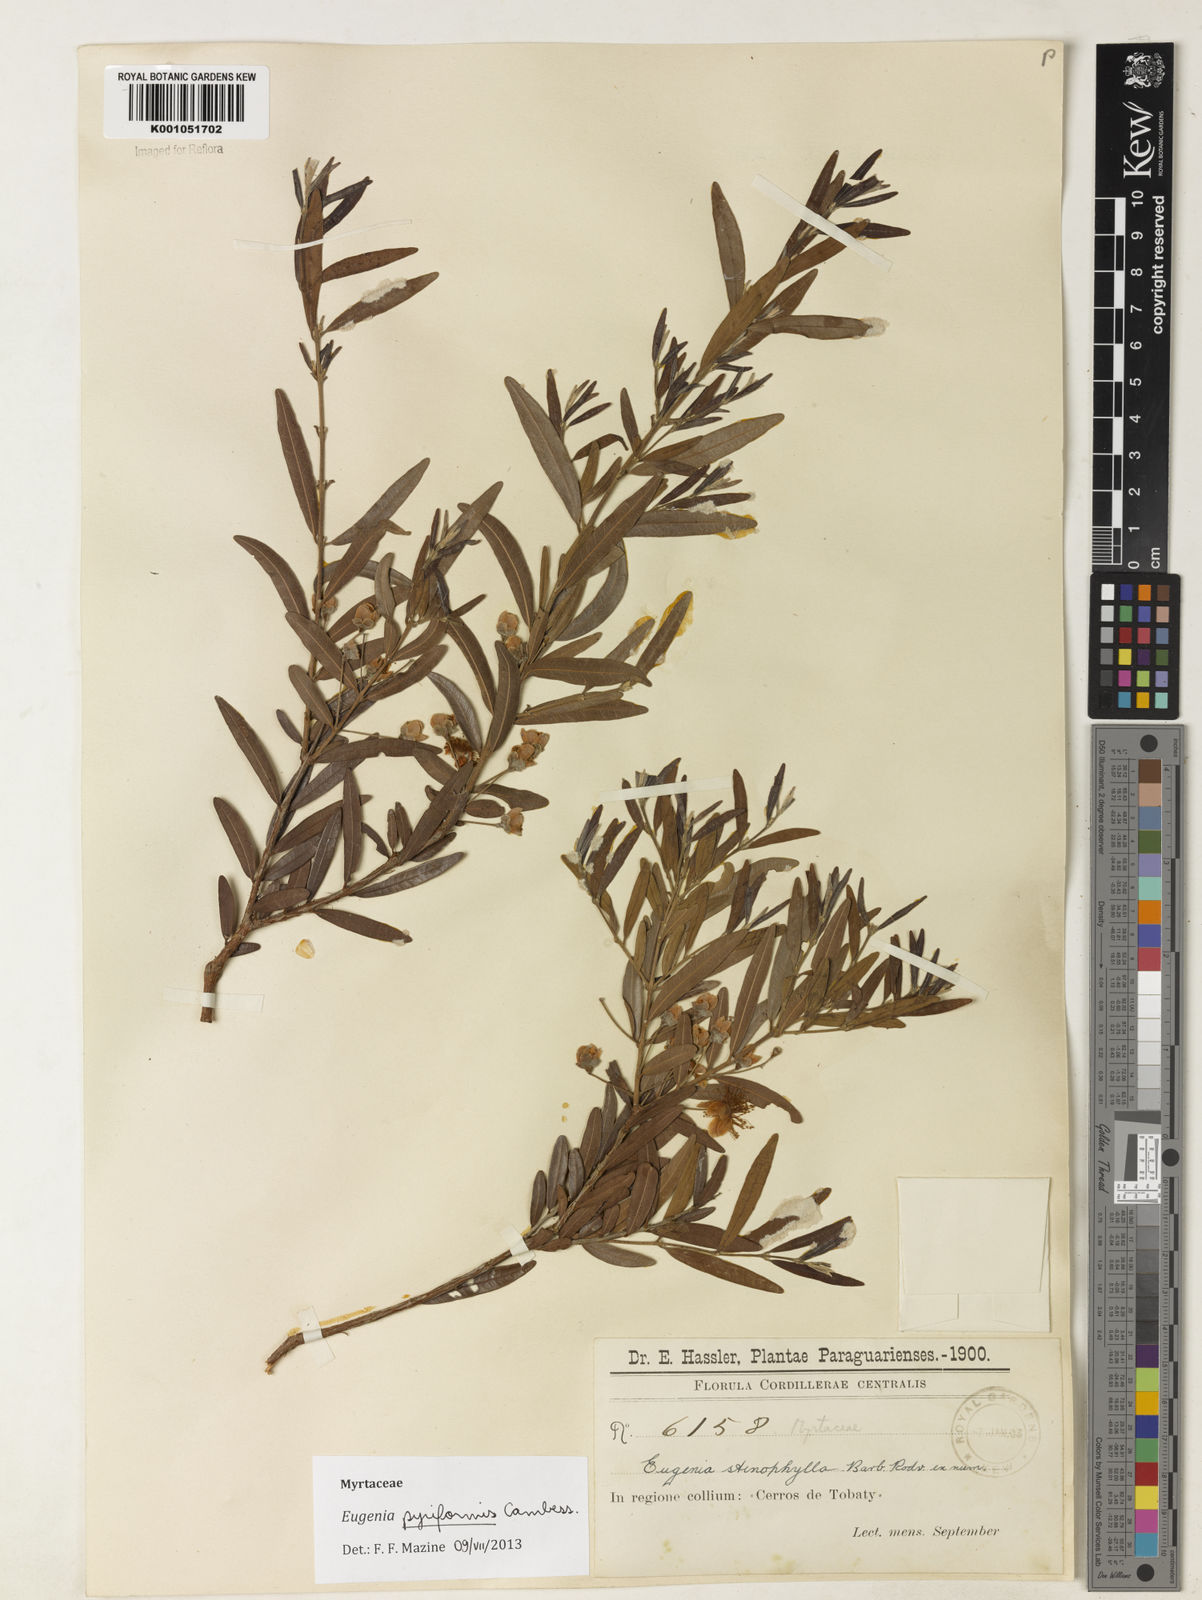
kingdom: Plantae
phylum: Tracheophyta
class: Magnoliopsida
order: Myrtales
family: Myrtaceae
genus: Eugenia
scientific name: Eugenia pyriformis
